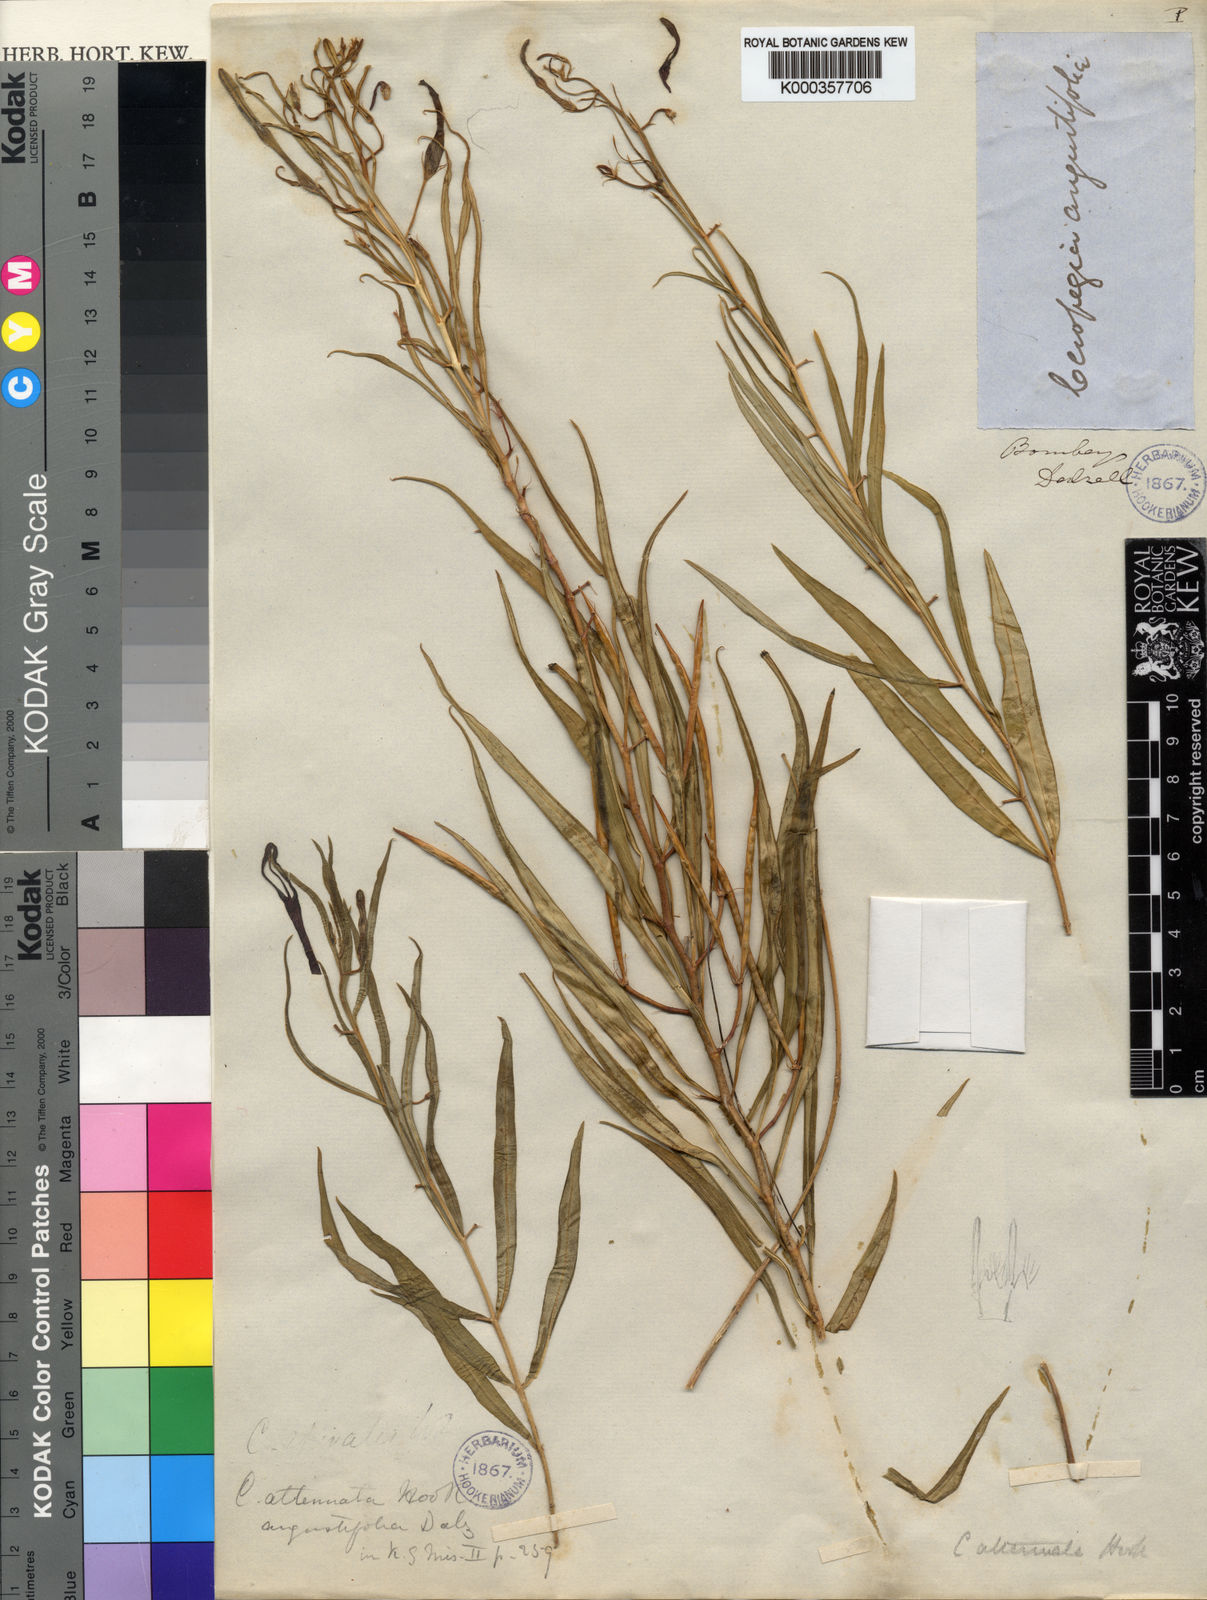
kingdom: Plantae
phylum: Tracheophyta
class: Magnoliopsida
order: Gentianales
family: Apocynaceae
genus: Ceropegia
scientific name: Ceropegia attenuata
